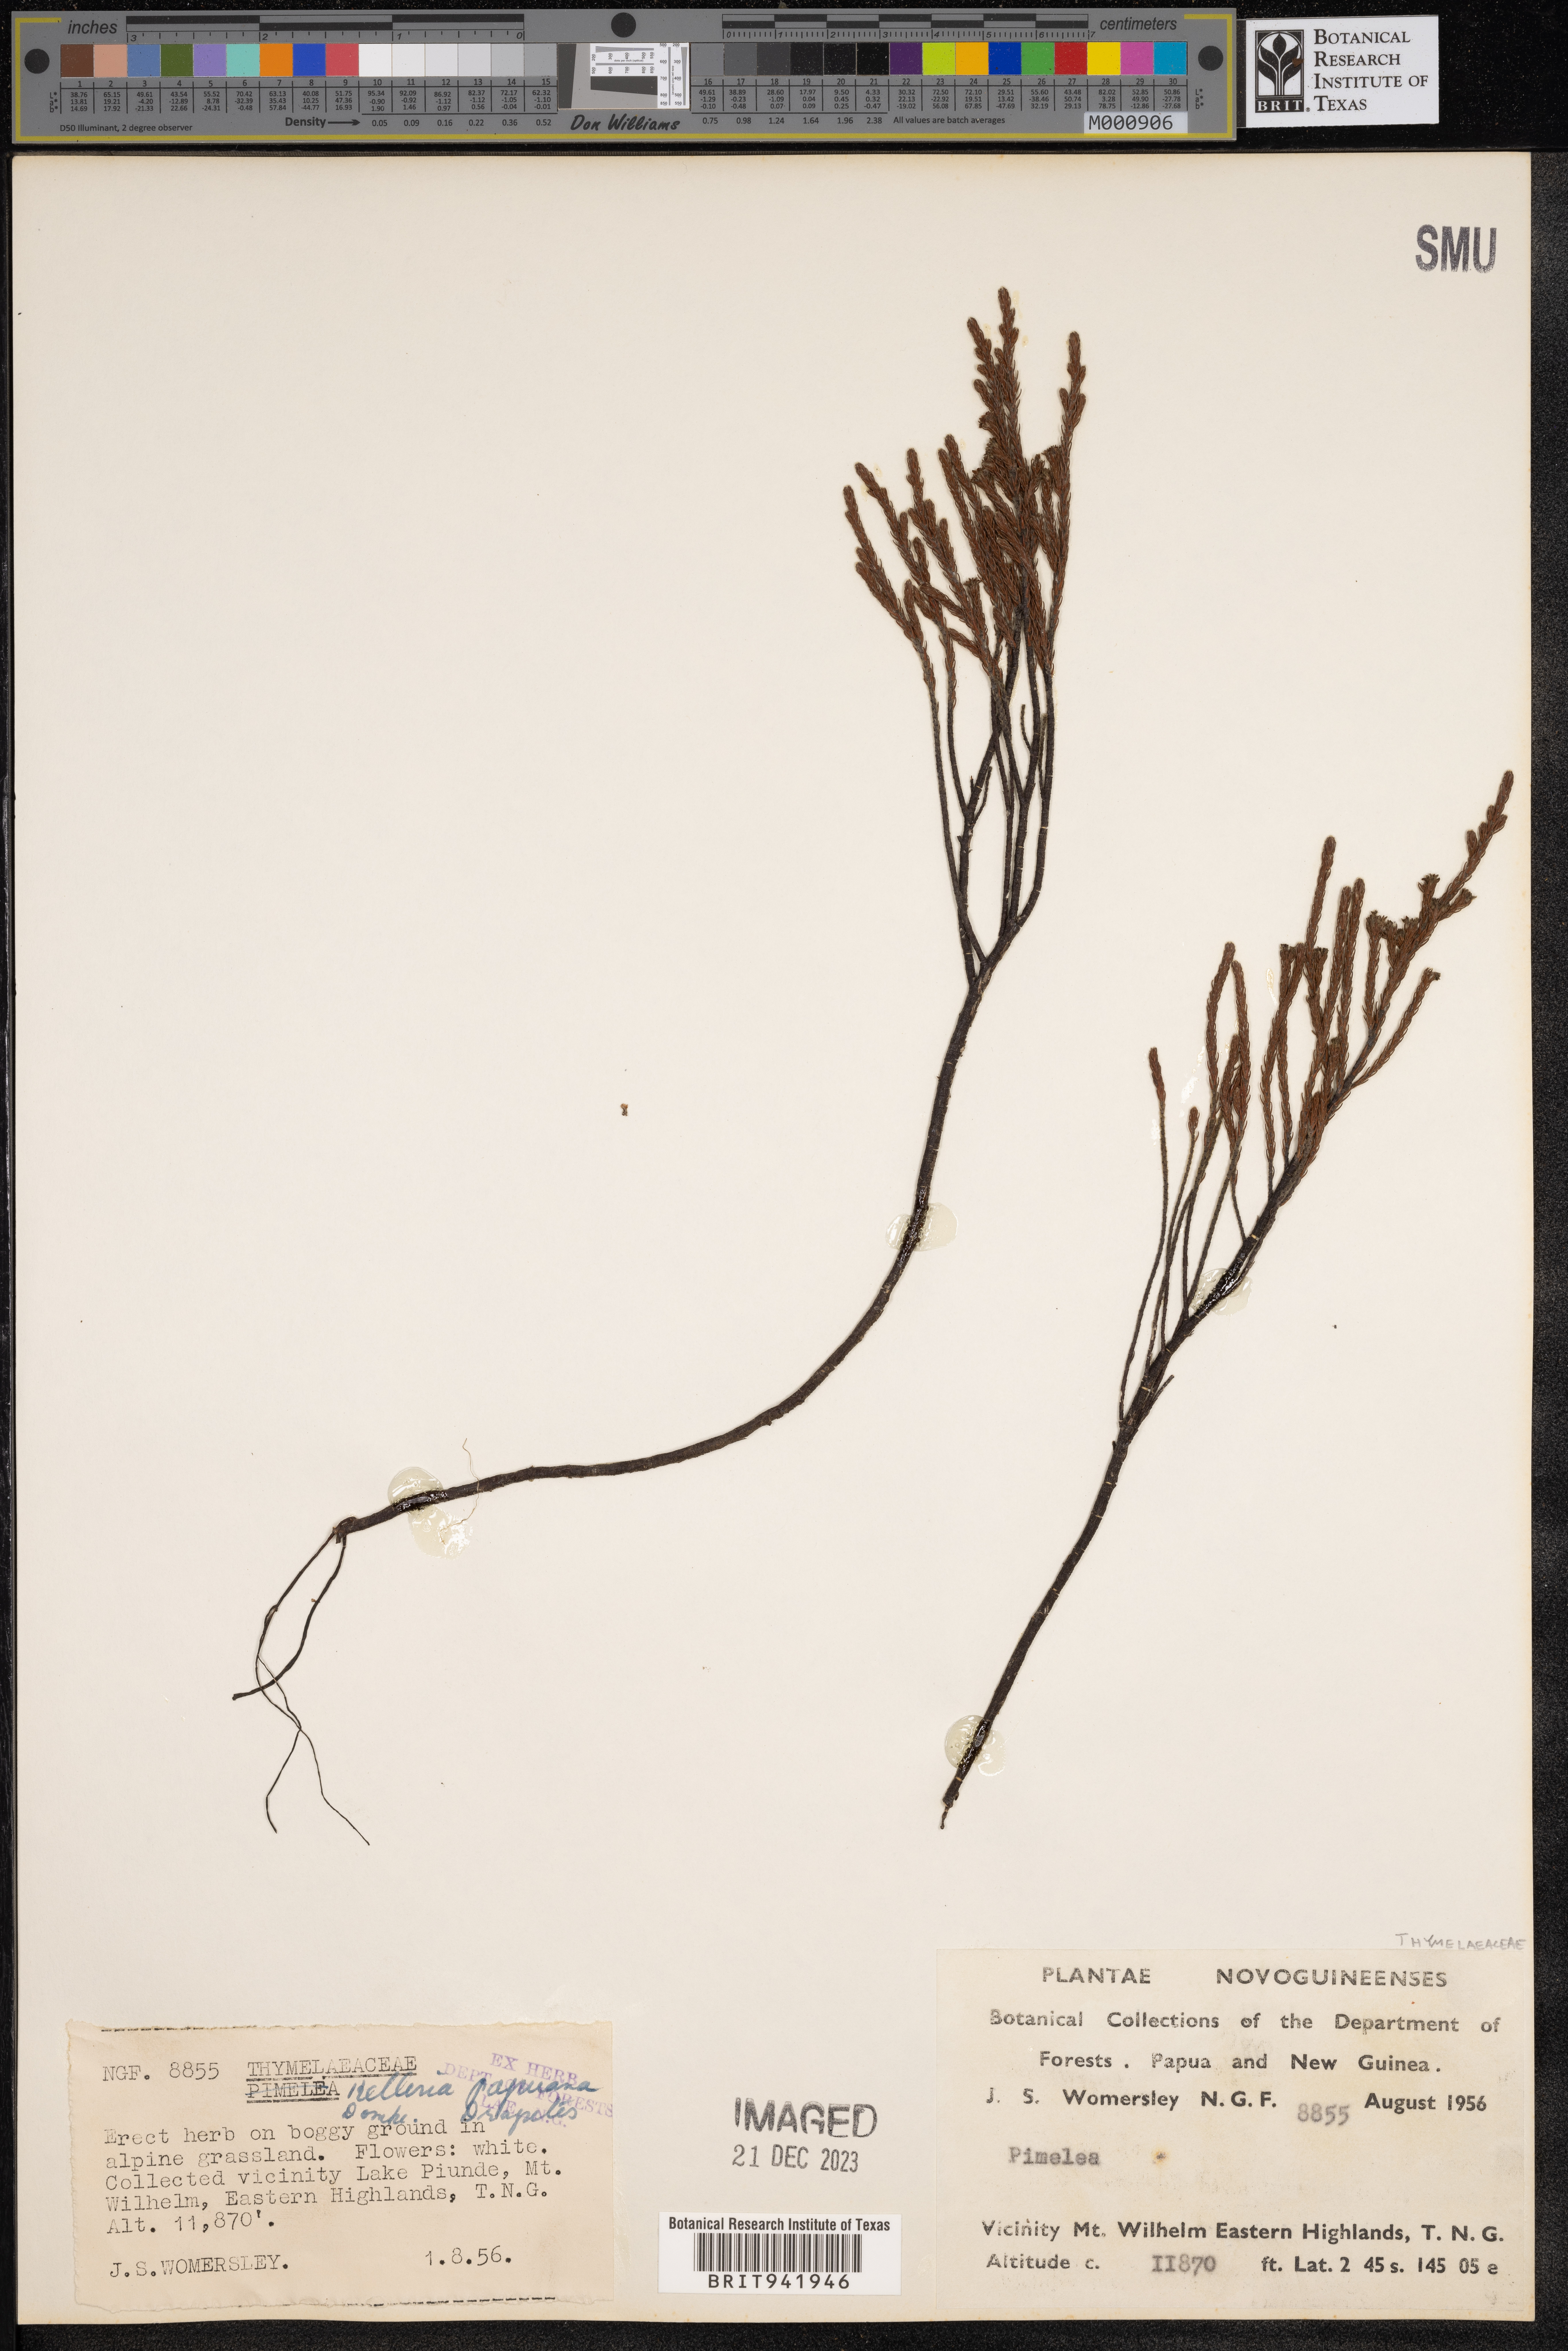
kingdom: Plantae
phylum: Tracheophyta
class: Magnoliopsida
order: Malvales
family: Thymelaeaceae
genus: Kelleria
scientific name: Kelleria
